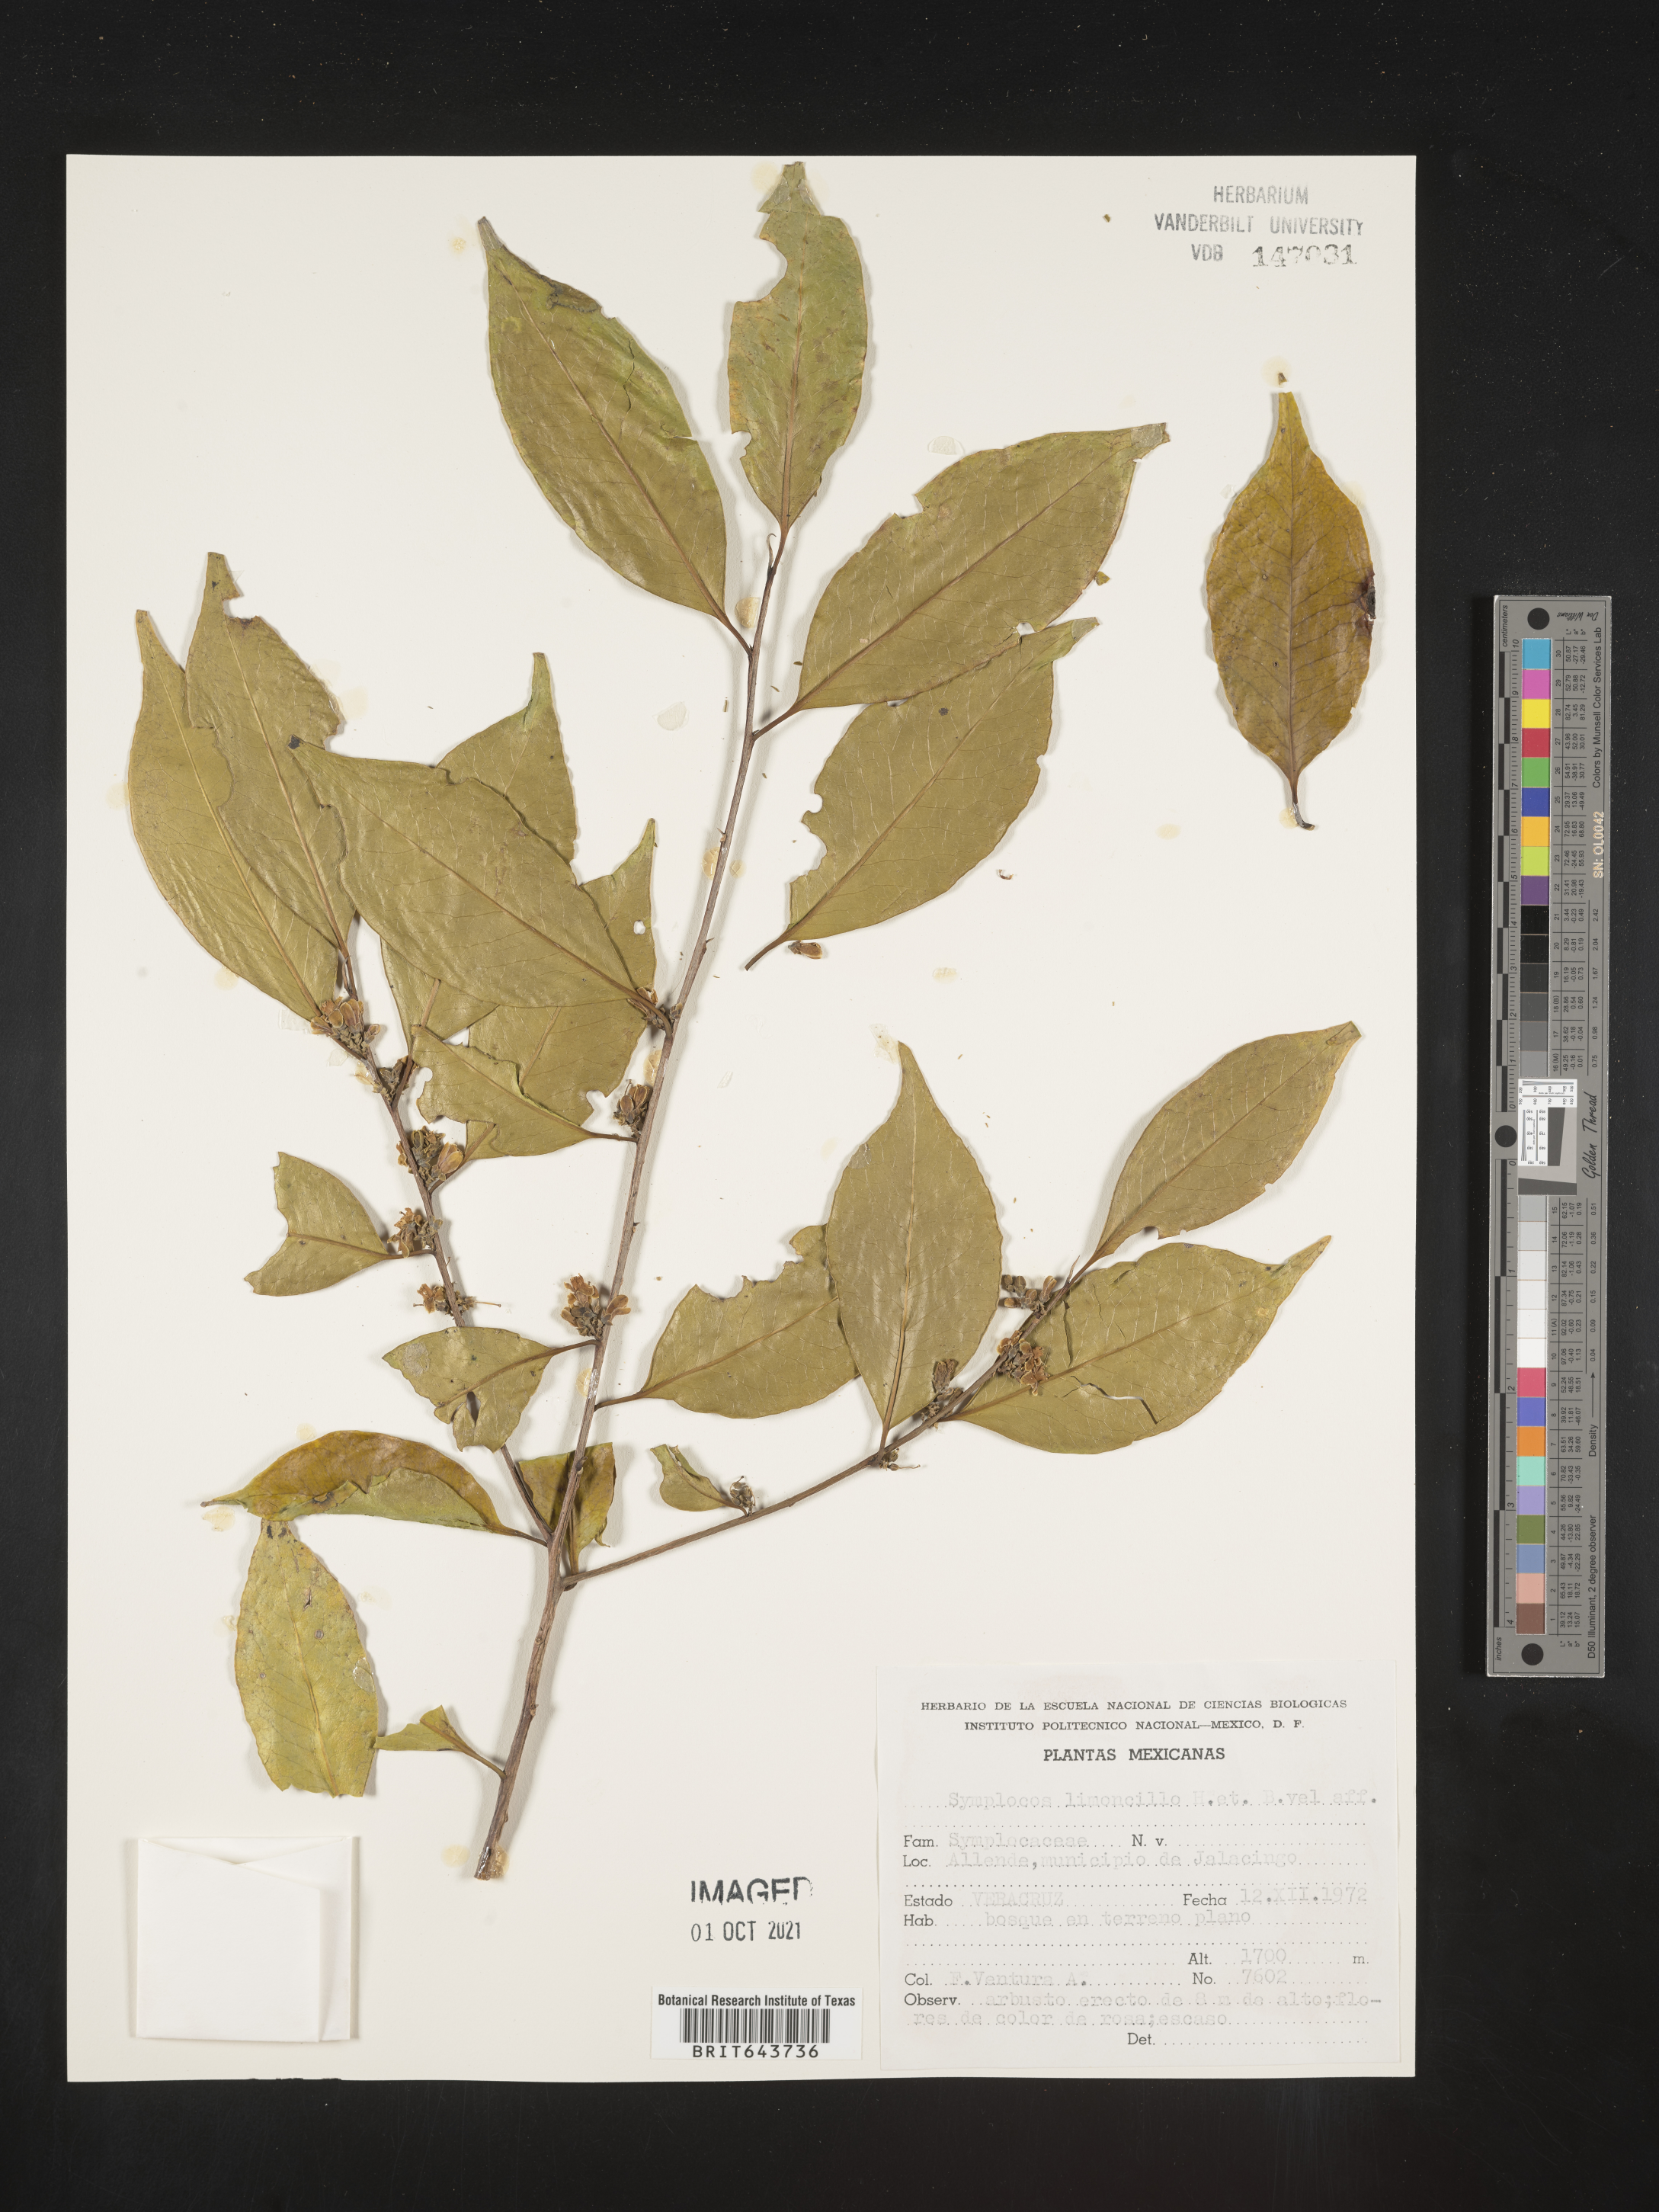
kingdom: Plantae
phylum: Tracheophyta
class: Magnoliopsida
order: Ericales
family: Symplocaceae
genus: Symplocos
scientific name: Symplocos
